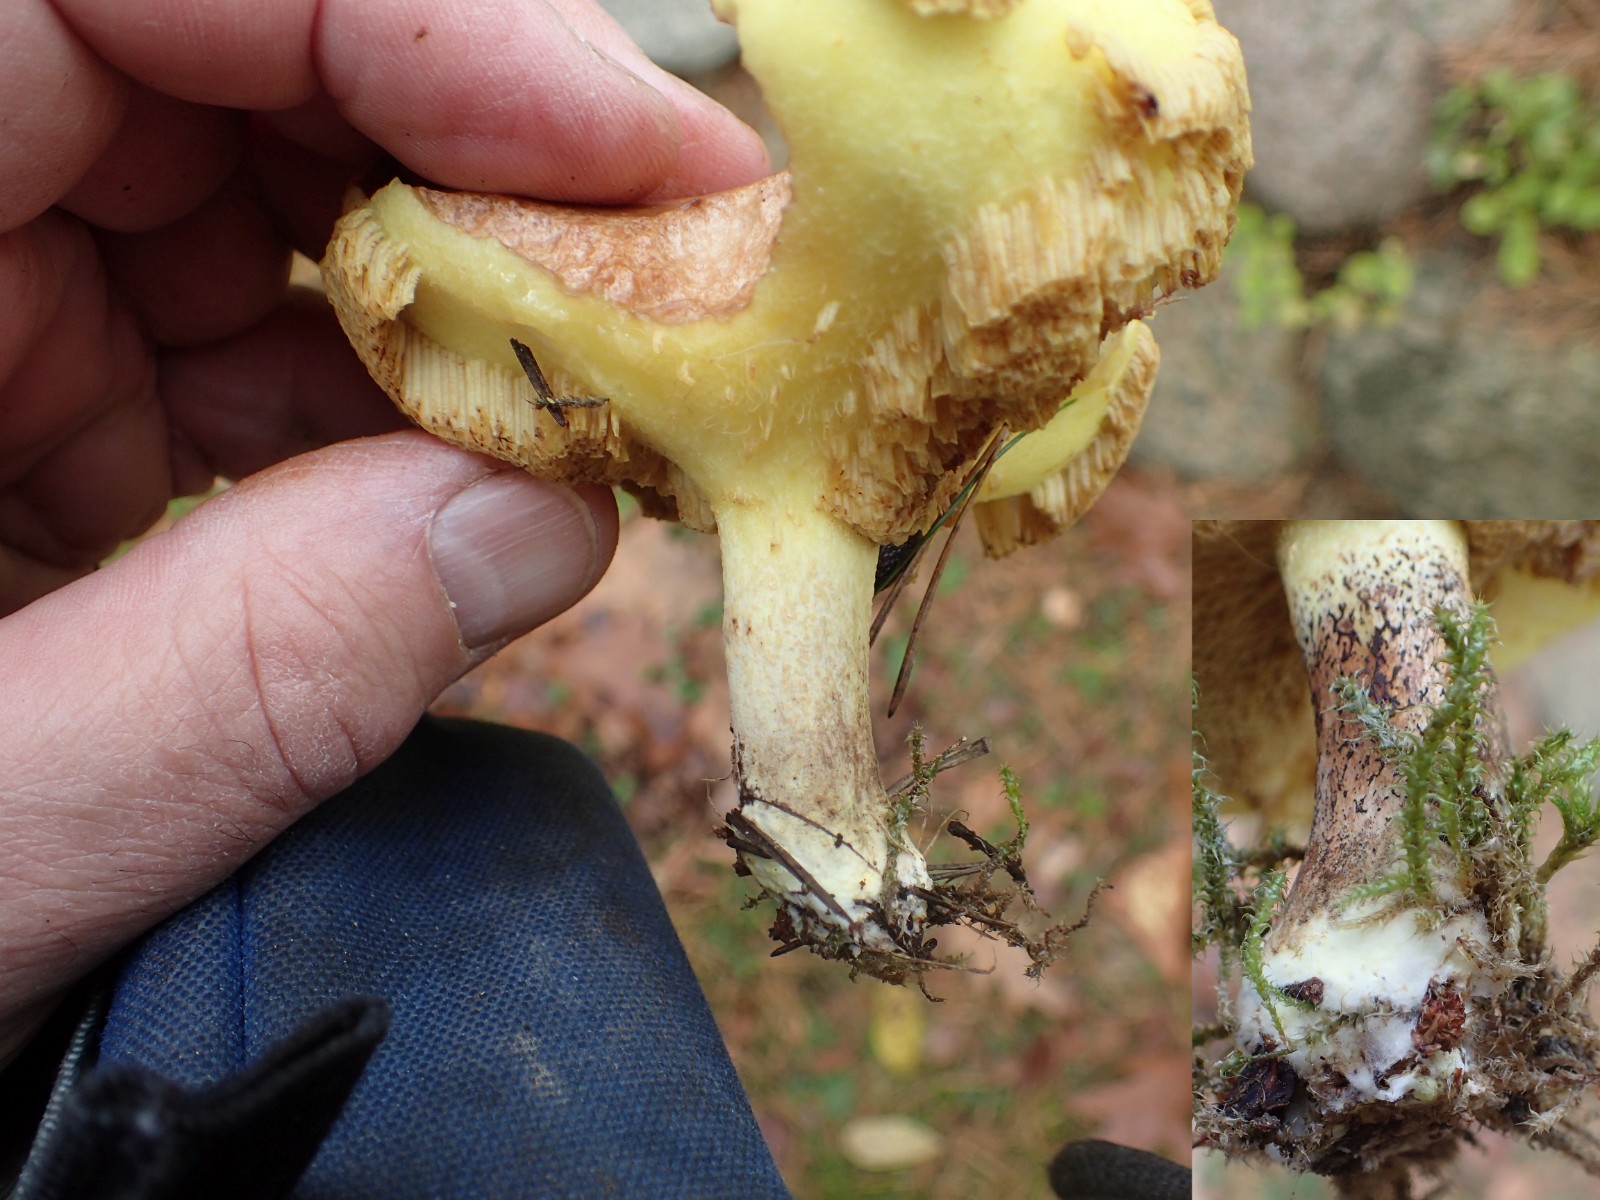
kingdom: Fungi
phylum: Basidiomycota
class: Agaricomycetes
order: Boletales
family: Suillaceae
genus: Suillus
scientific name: Suillus collinitus
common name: rosafodet slimrørhat
